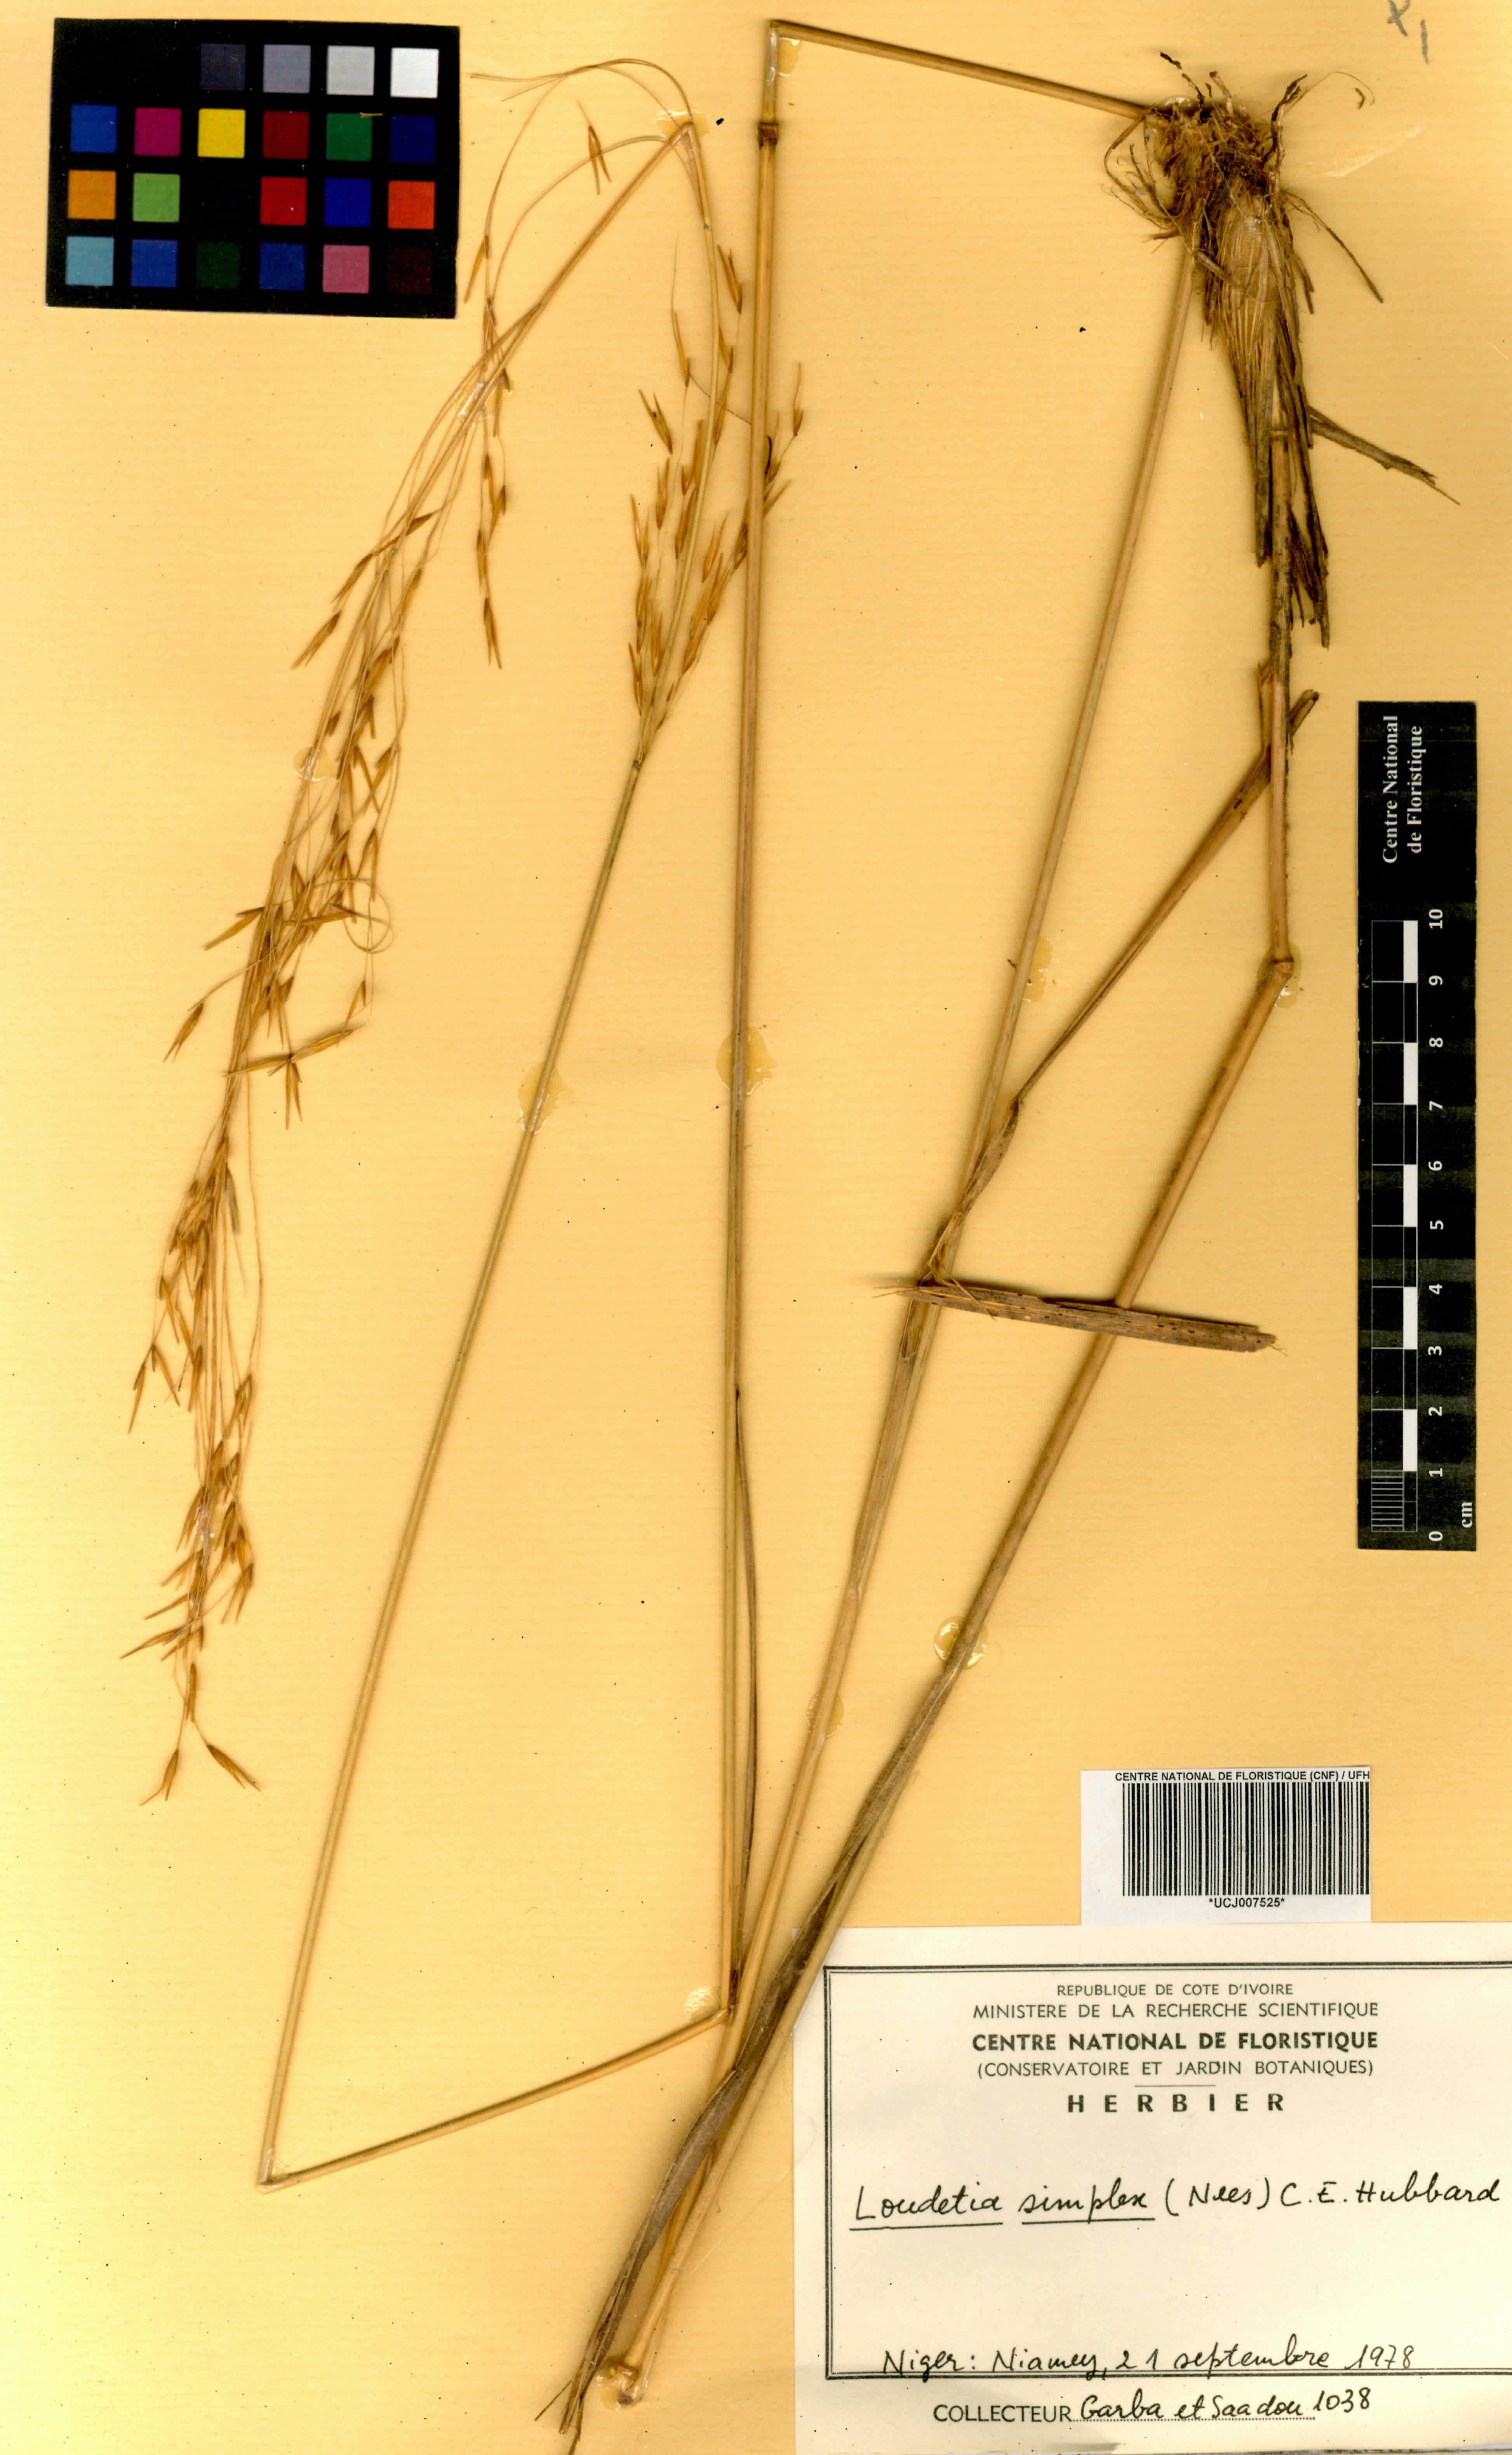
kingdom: Plantae
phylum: Tracheophyta
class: Liliopsida
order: Poales
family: Poaceae
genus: Loudetia
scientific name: Loudetia simplex
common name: Common russet grass
